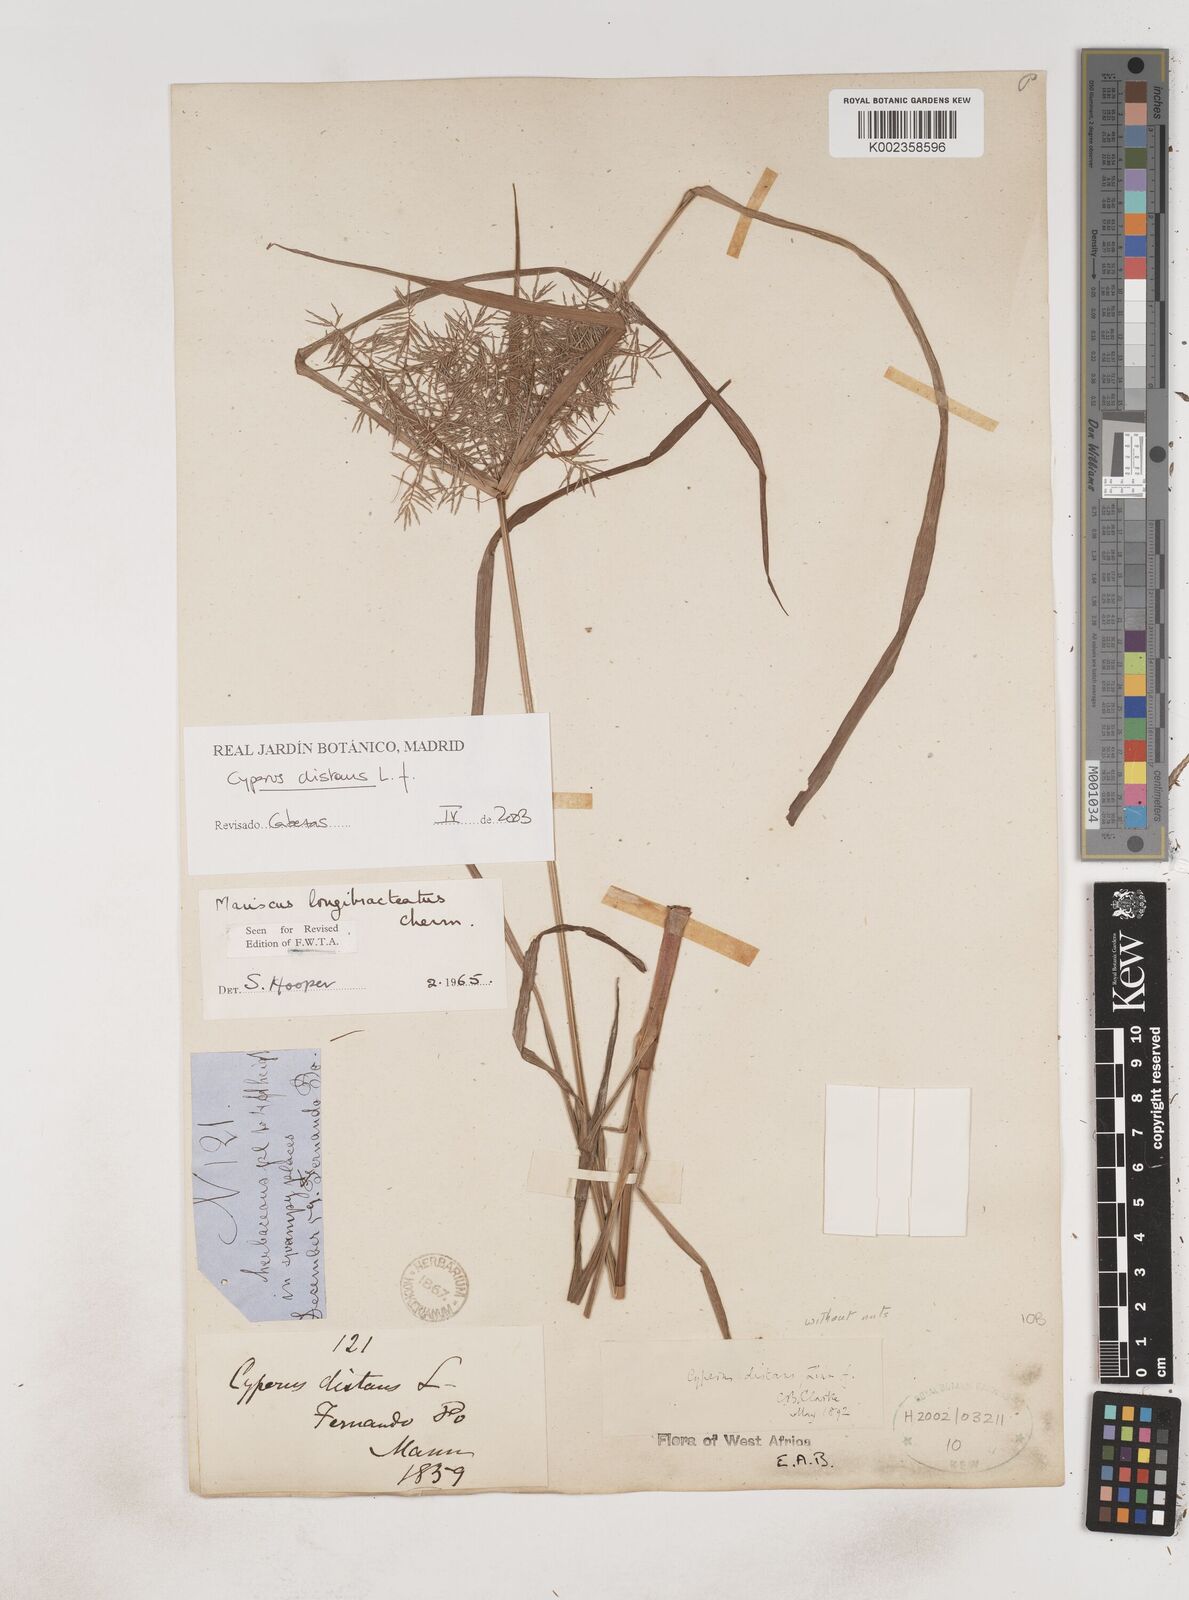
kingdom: Plantae
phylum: Tracheophyta
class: Liliopsida
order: Poales
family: Cyperaceae
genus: Cyperus
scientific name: Cyperus distans
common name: Slender cyperus
